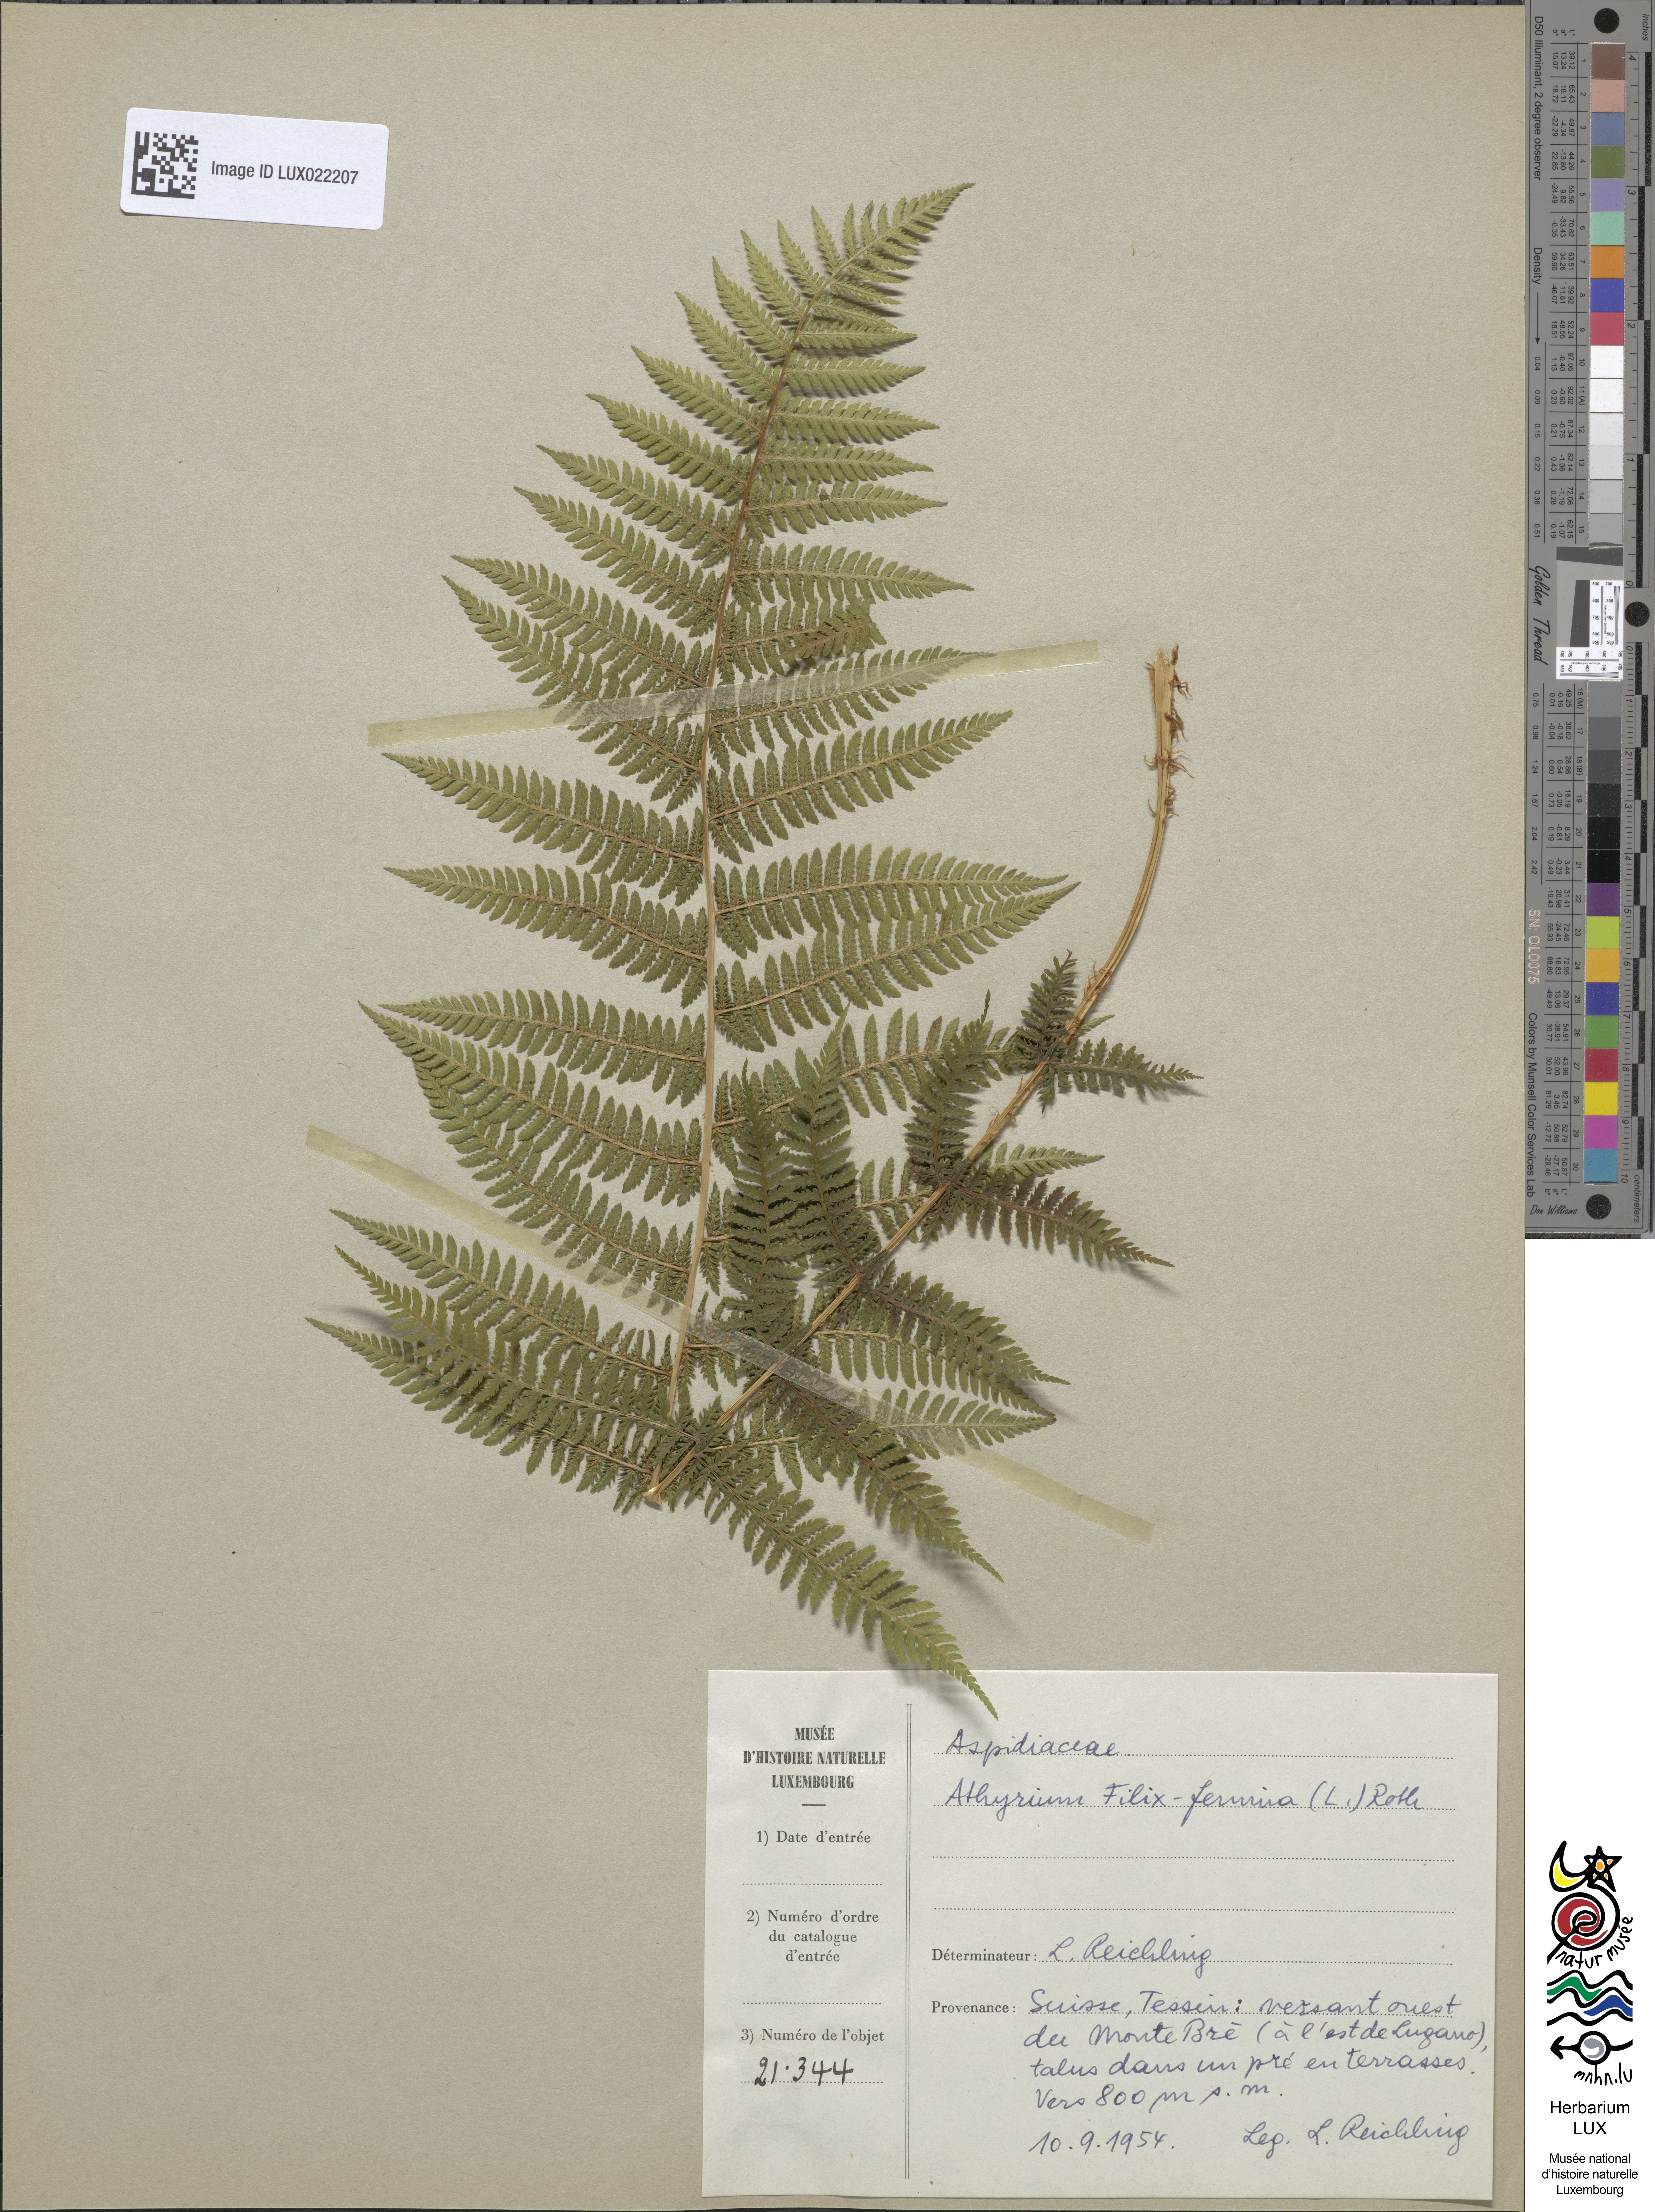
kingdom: Plantae
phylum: Tracheophyta
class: Polypodiopsida
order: Polypodiales
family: Athyriaceae
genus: Athyrium
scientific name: Athyrium filix-femina
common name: Lady fern
